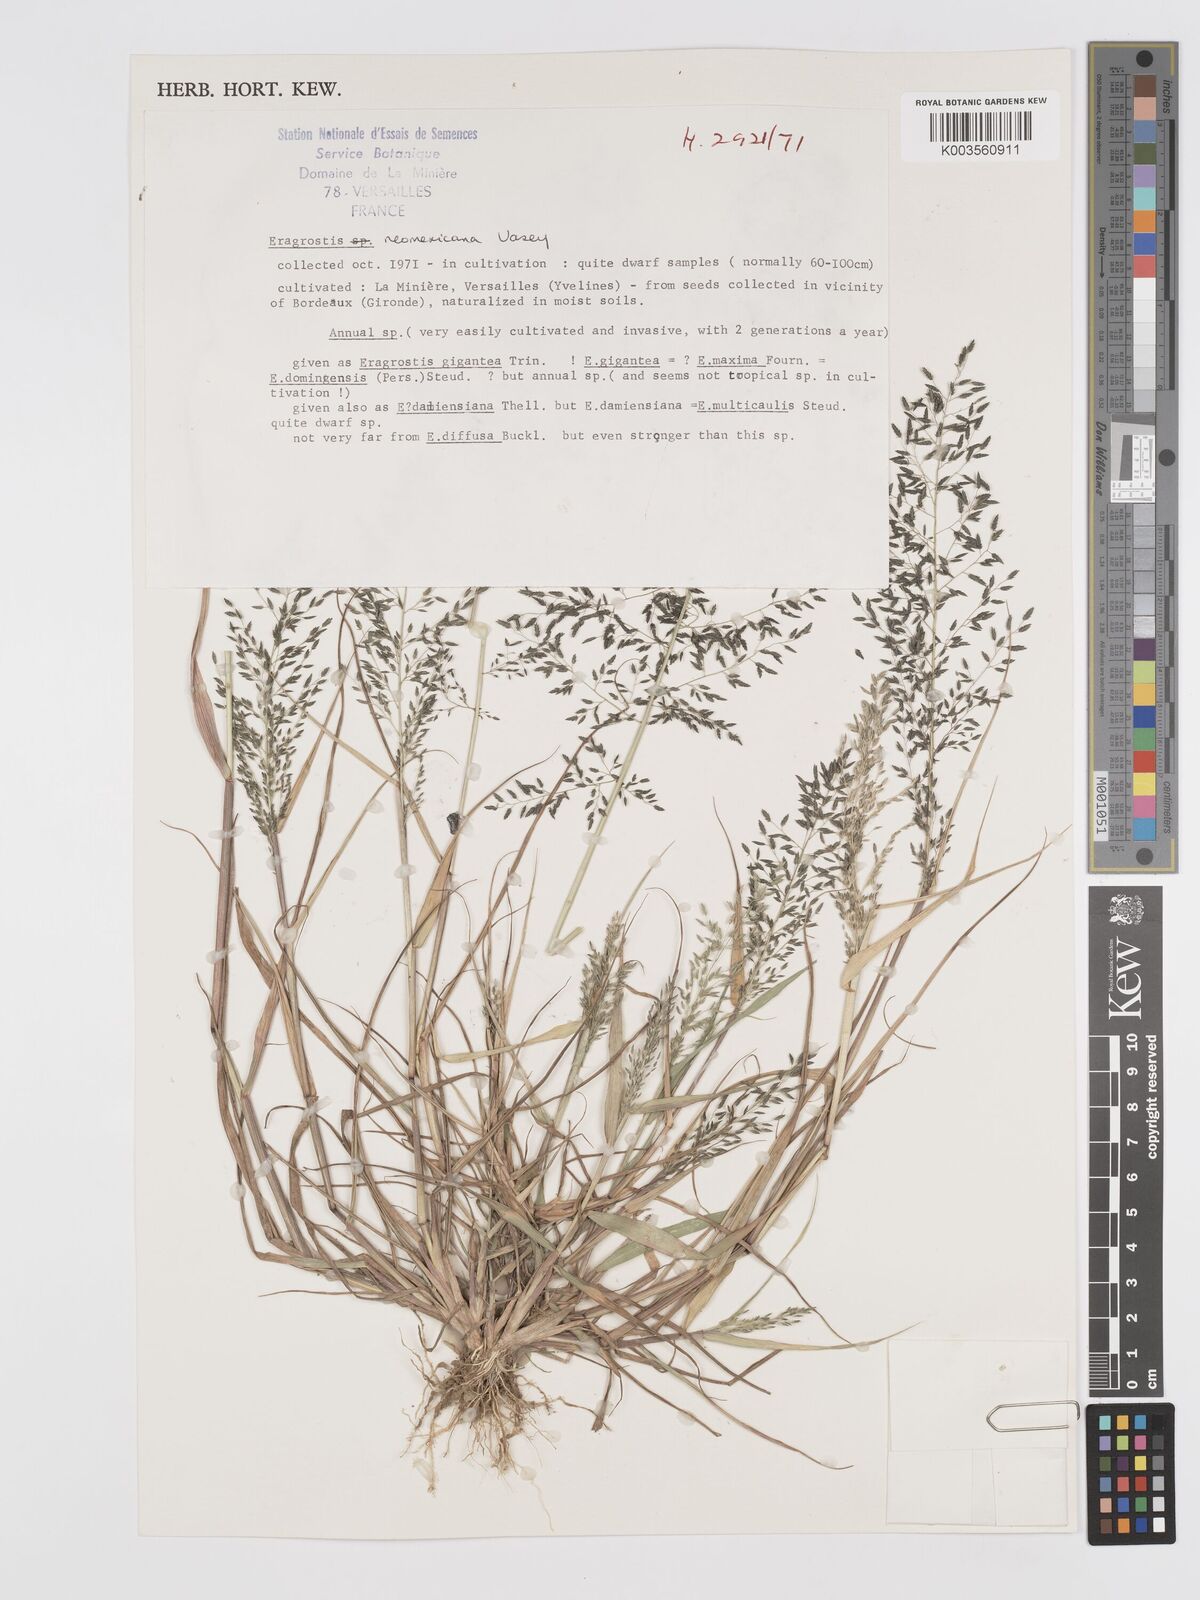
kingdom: Plantae
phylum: Tracheophyta
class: Liliopsida
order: Poales
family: Poaceae
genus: Eragrostis
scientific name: Eragrostis mexicana
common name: Mexican love grass
